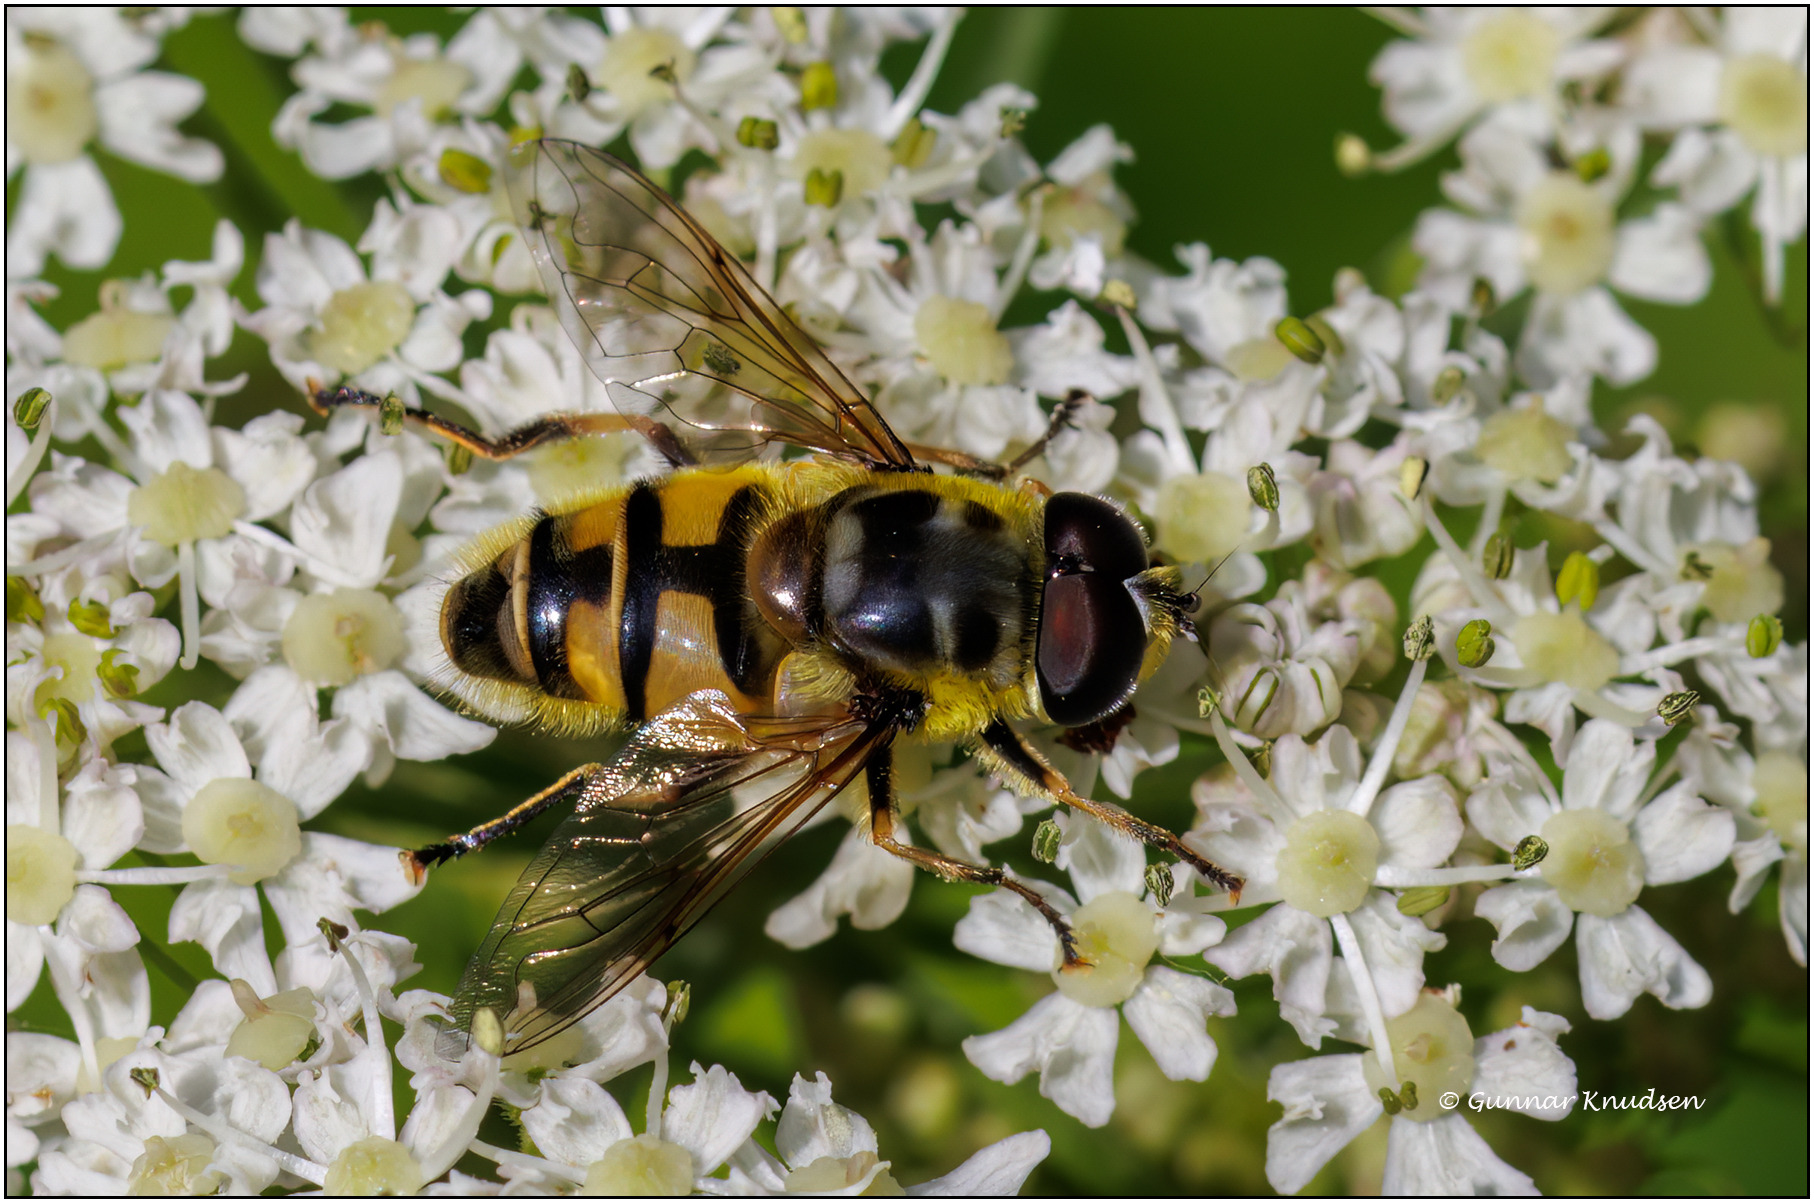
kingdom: Animalia
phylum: Arthropoda
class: Insecta
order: Diptera
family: Syrphidae
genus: Myathropa
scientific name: Myathropa florea
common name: Dødningehoved-svirreflue
